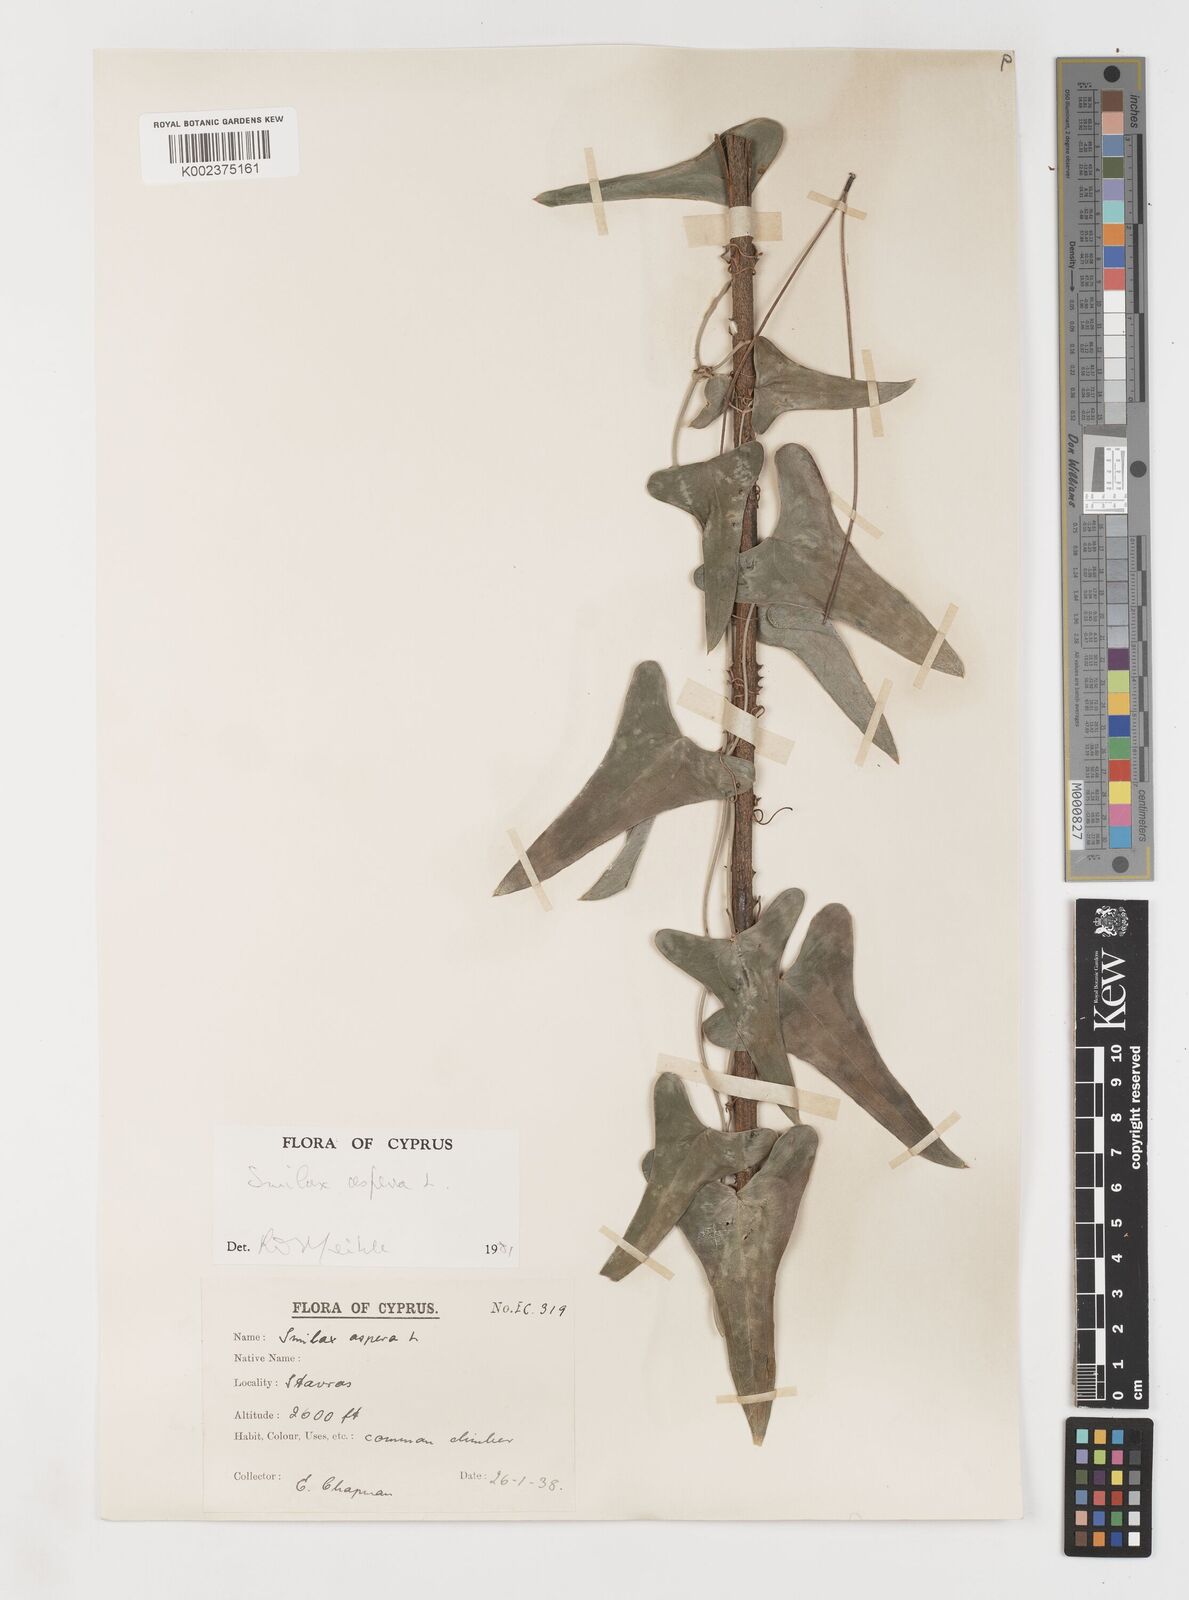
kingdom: Plantae
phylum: Tracheophyta
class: Liliopsida
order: Liliales
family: Smilacaceae
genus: Smilax
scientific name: Smilax aspera
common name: Common smilax
